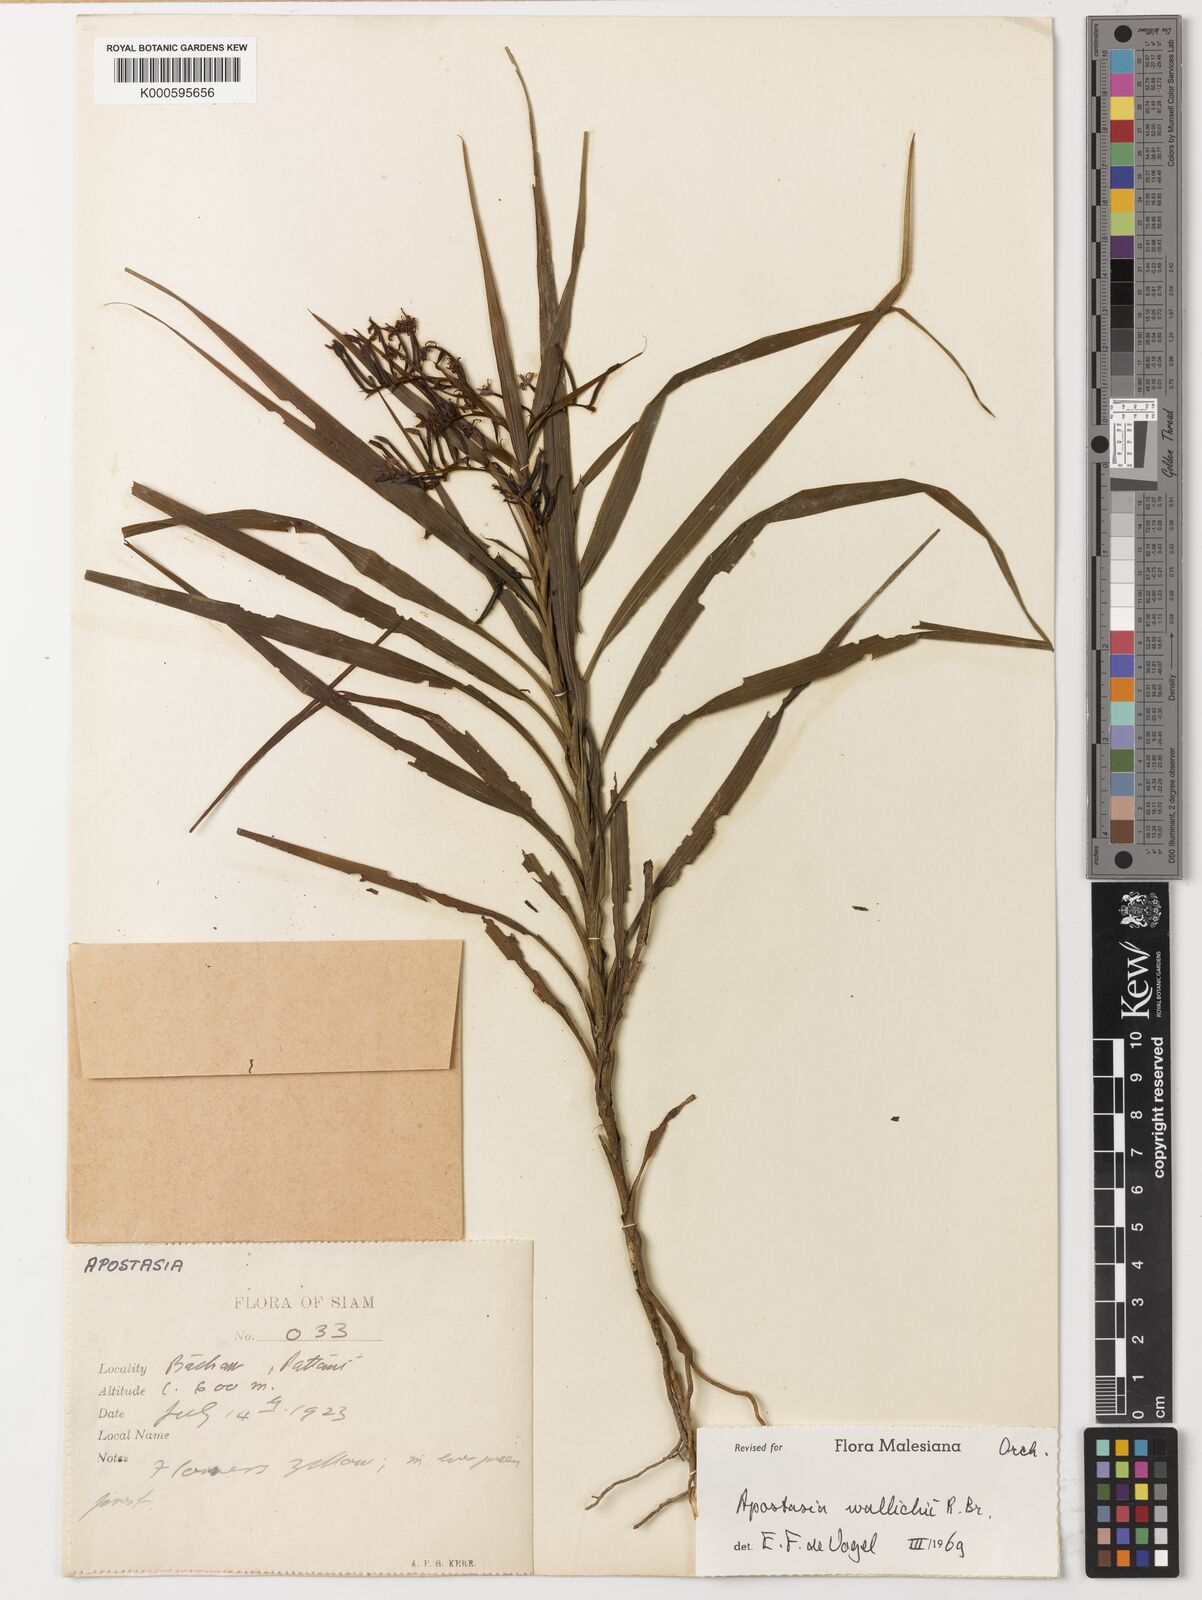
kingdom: Plantae
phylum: Tracheophyta
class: Liliopsida
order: Asparagales
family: Orchidaceae
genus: Apostasia
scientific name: Apostasia wallichii
